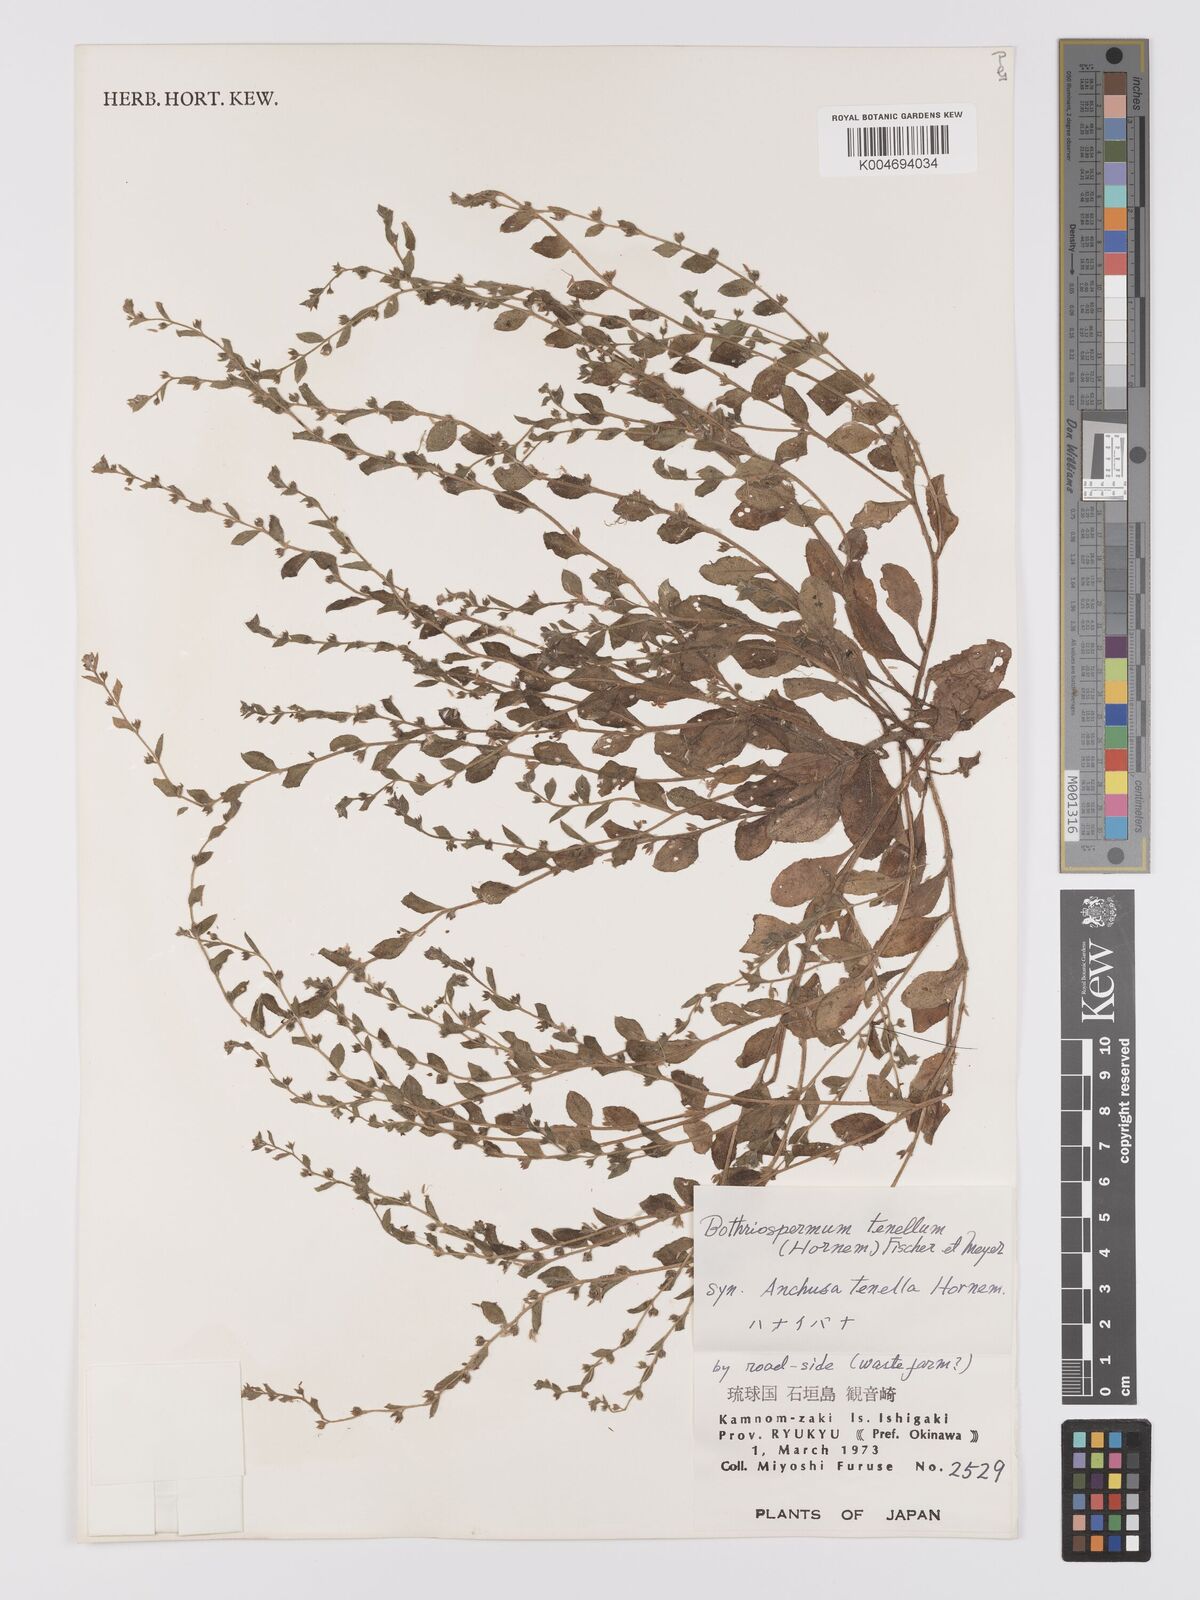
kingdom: Plantae
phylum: Tracheophyta
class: Magnoliopsida
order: Boraginales
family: Boraginaceae
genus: Bothriospermum
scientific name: Bothriospermum zeylanicum
